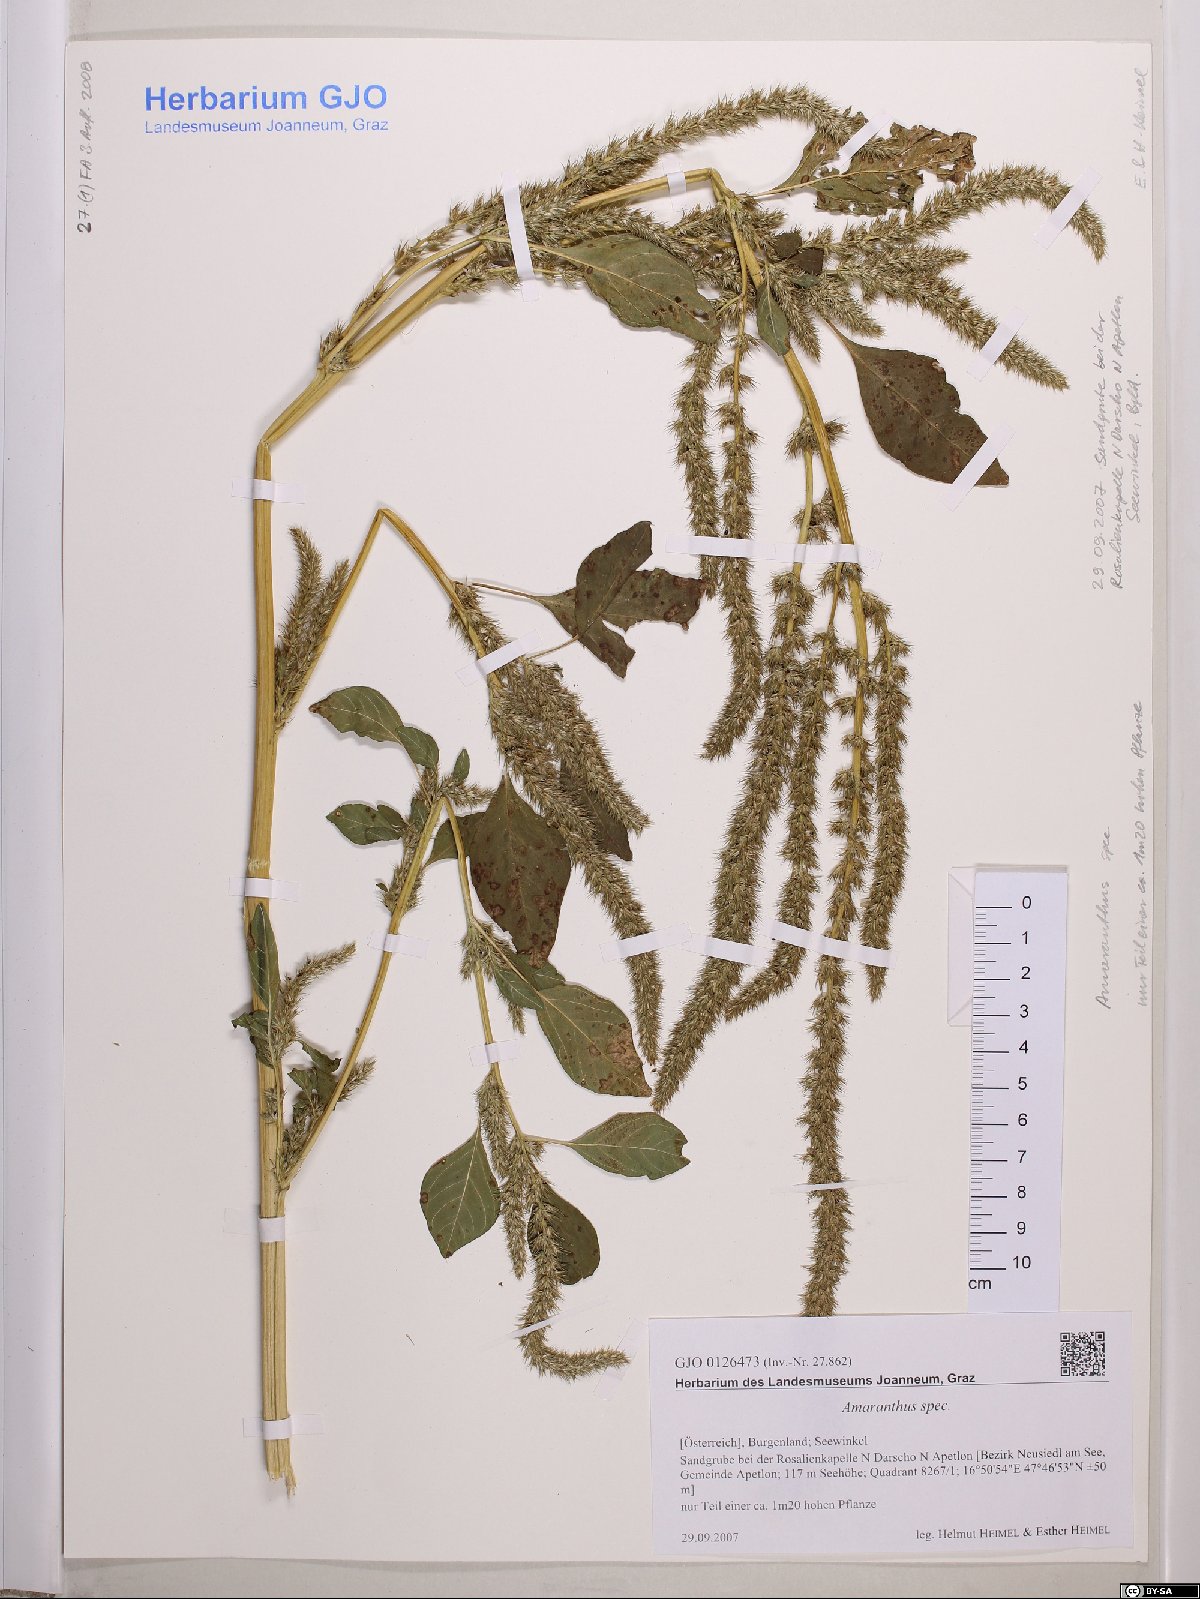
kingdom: Plantae
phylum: Tracheophyta
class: Magnoliopsida
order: Caryophyllales
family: Amaranthaceae
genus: Amaranthus
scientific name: Amaranthus
